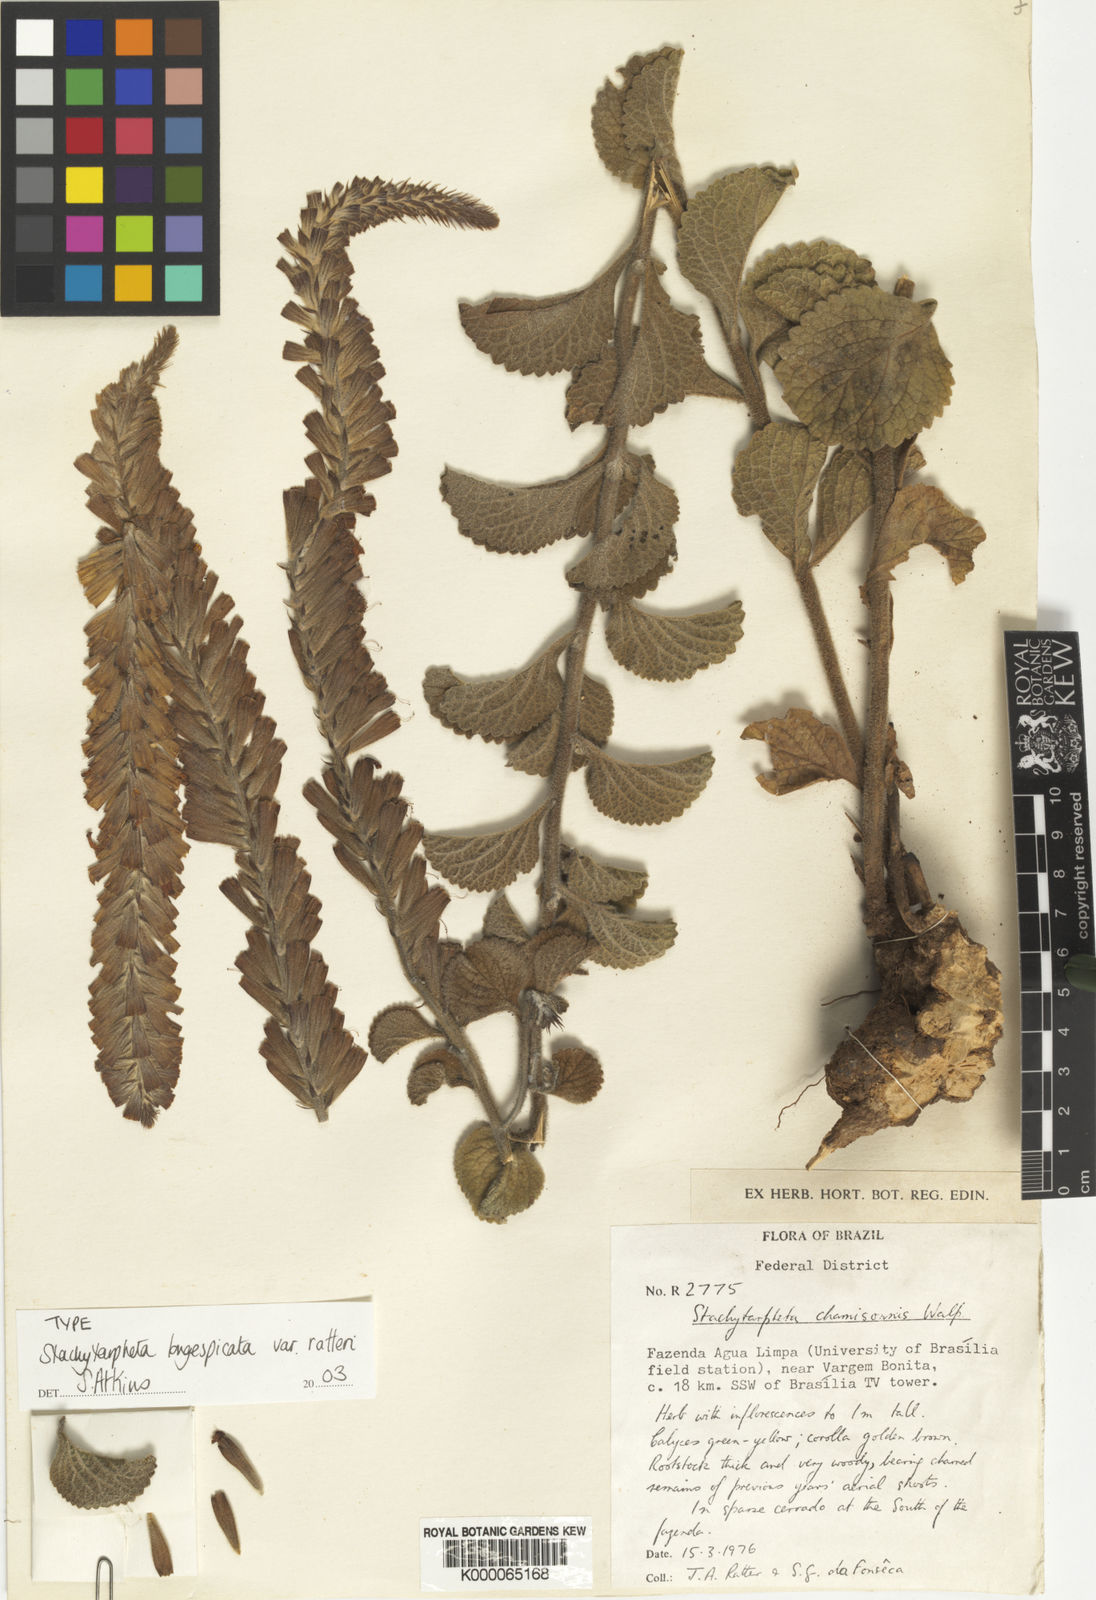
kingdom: Plantae
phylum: Tracheophyta
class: Magnoliopsida
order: Lamiales
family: Verbenaceae
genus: Stachytarpheta
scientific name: Stachytarpheta
